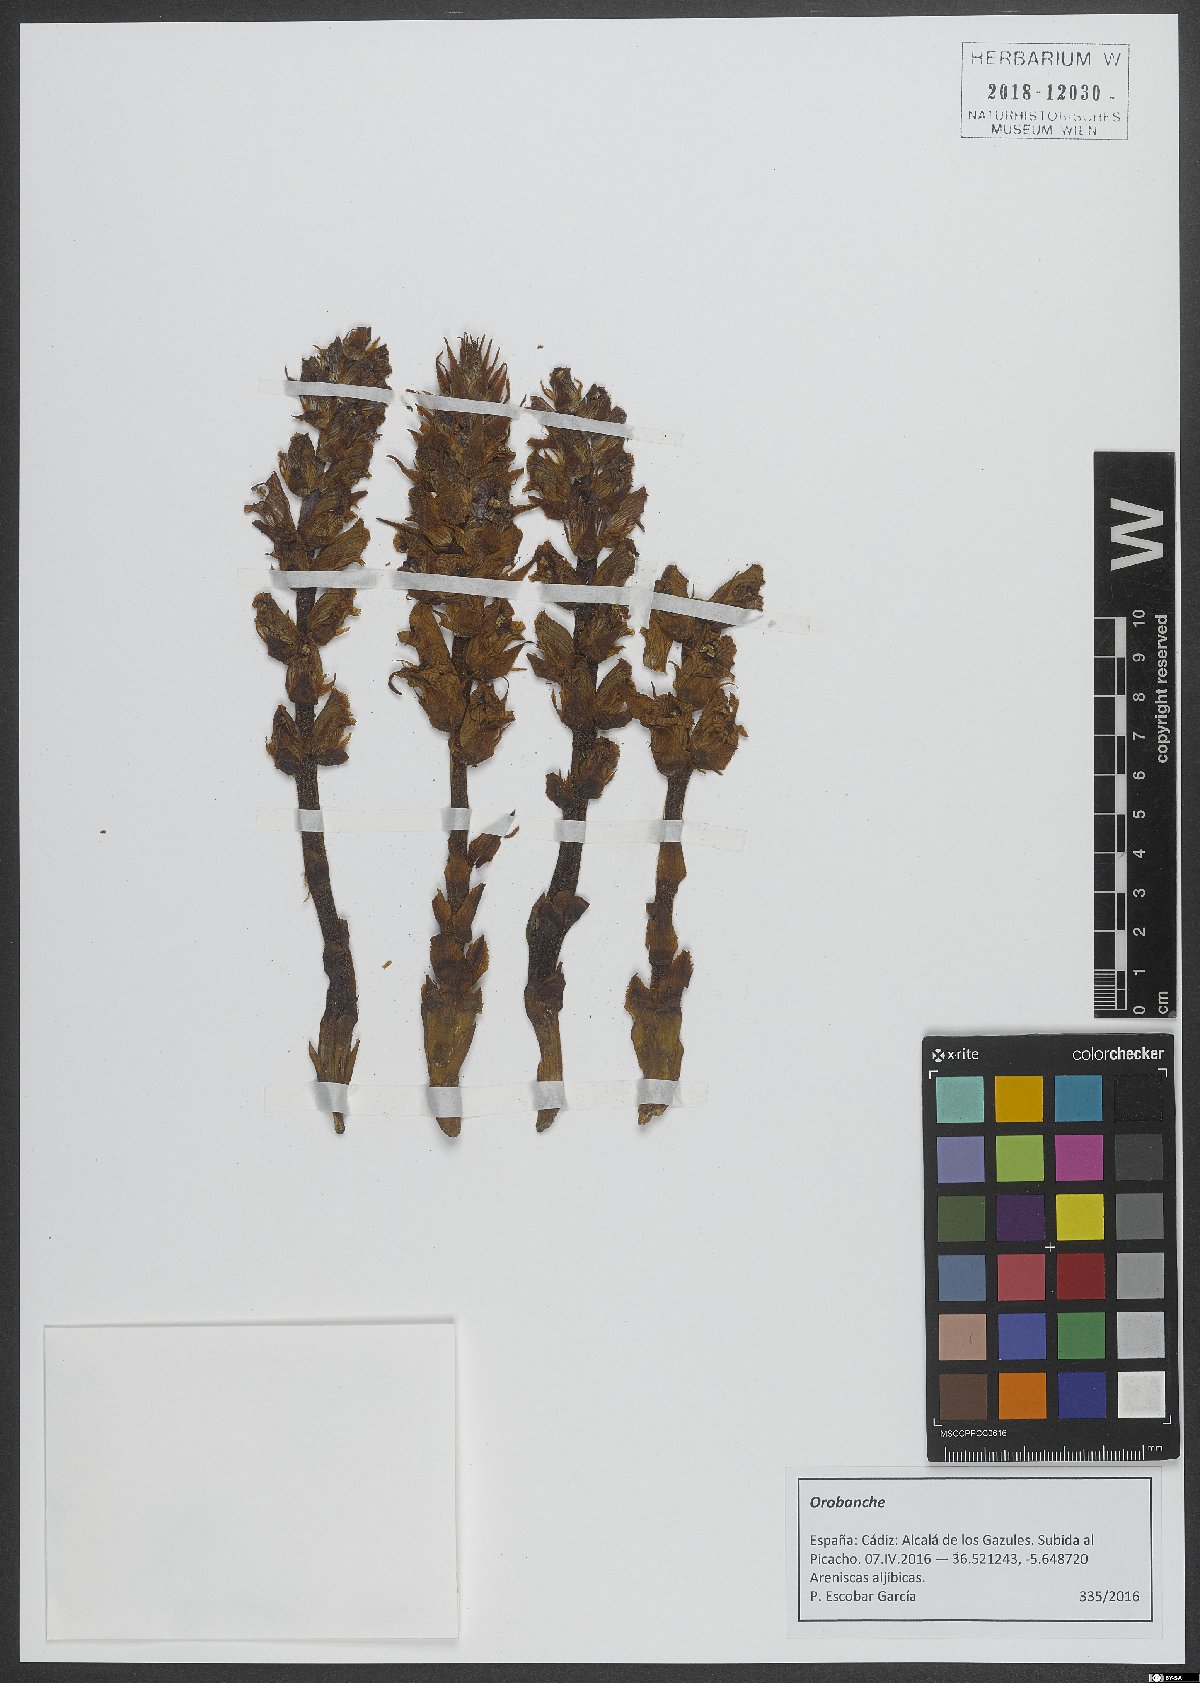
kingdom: Plantae
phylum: Tracheophyta
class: Magnoliopsida
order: Lamiales
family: Orobanchaceae
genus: Orobanche
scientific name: Orobanche
